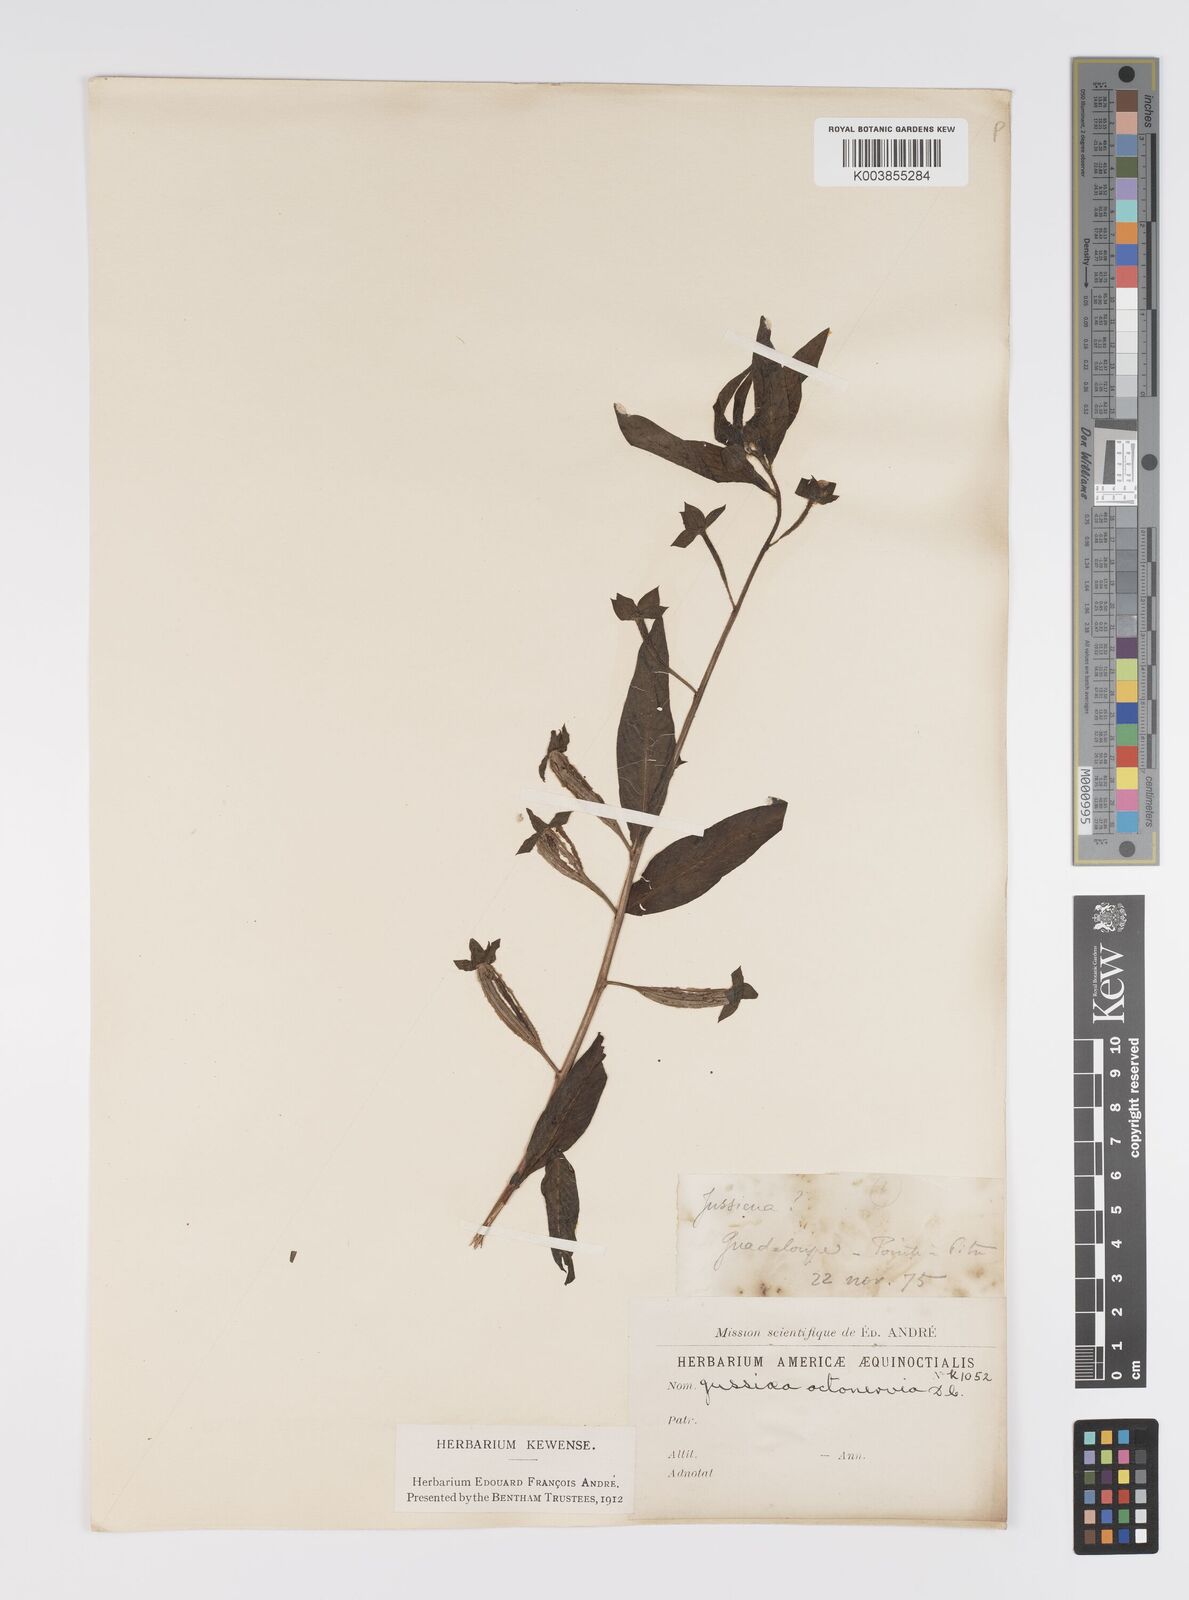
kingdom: Plantae
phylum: Tracheophyta
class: Magnoliopsida
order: Myrtales
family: Onagraceae
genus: Ludwigia
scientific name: Ludwigia octovalvis
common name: Water-primrose
